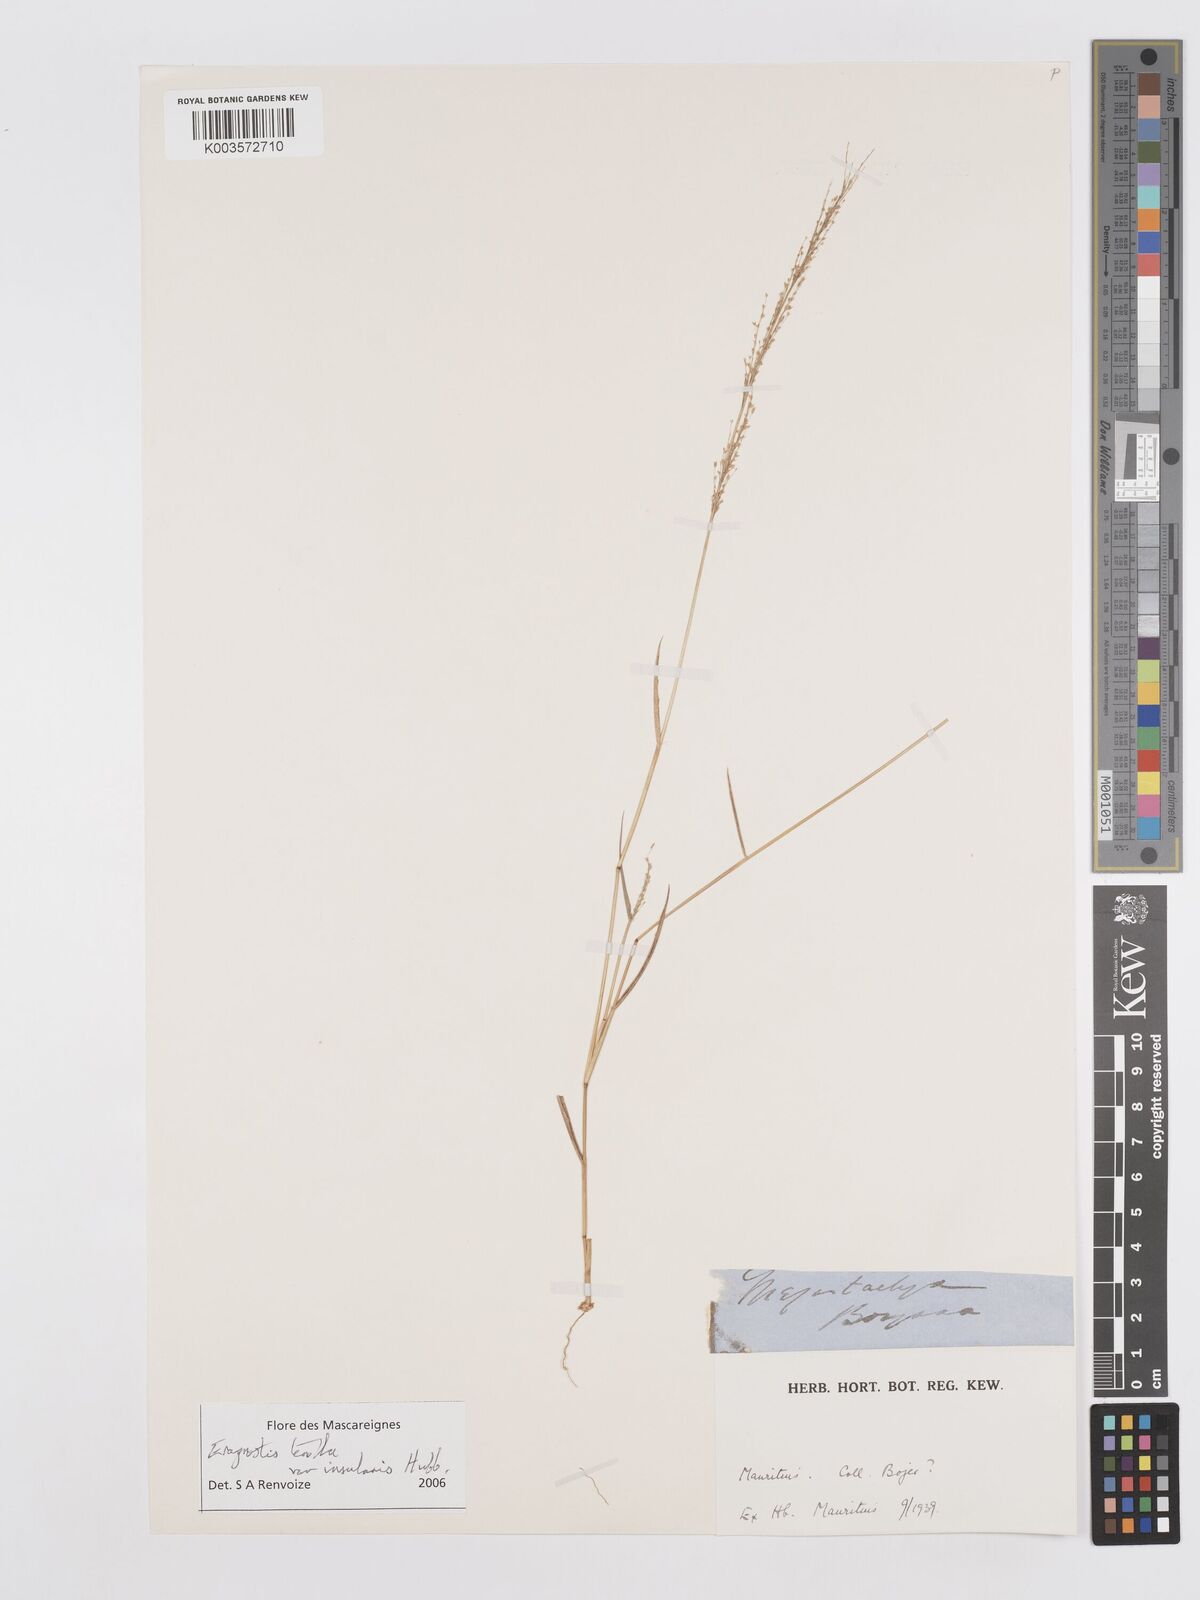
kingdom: Plantae
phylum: Tracheophyta
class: Liliopsida
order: Poales
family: Poaceae
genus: Eragrostis
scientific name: Eragrostis tenella
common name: Japanese lovegrass
